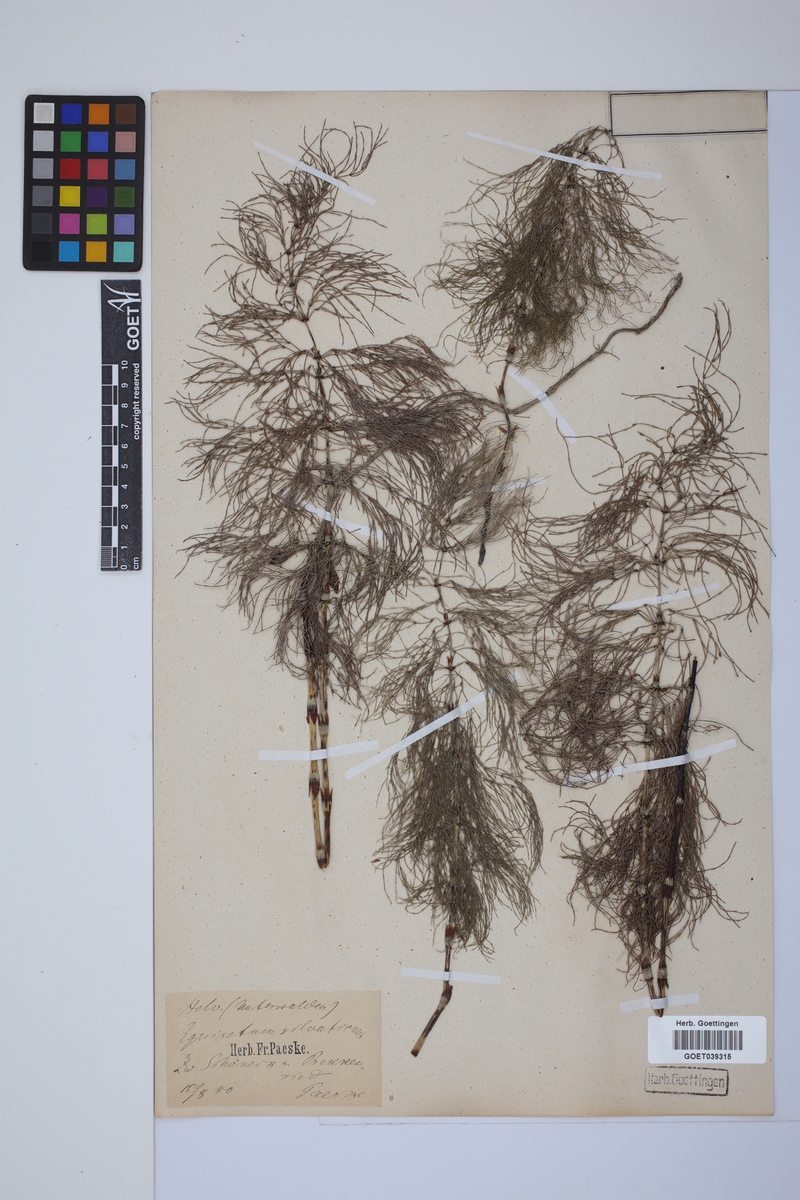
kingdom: Plantae
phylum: Tracheophyta
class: Polypodiopsida
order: Equisetales
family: Equisetaceae
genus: Equisetum
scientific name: Equisetum sylvaticum
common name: Wood horsetail
